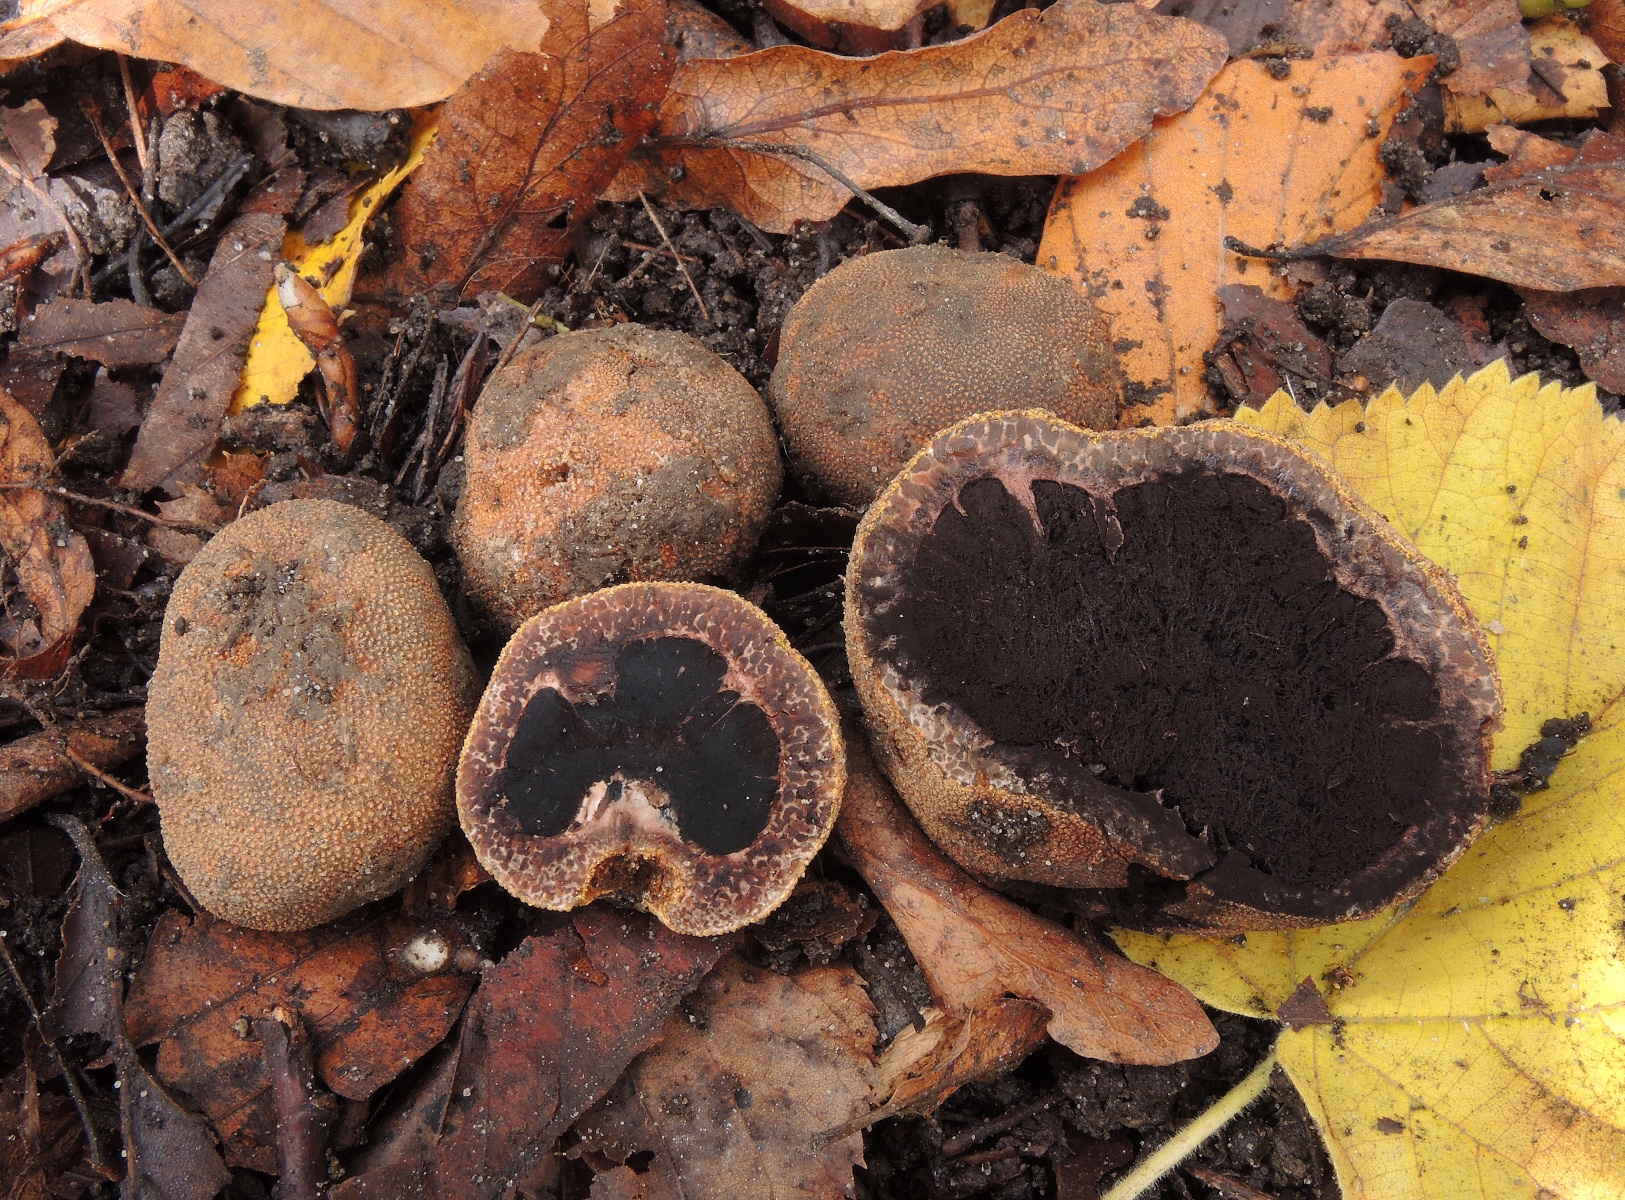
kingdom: Fungi
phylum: Ascomycota
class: Eurotiomycetes
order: Eurotiales
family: Elaphomycetaceae
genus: Elaphomyces
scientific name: Elaphomyces muricatus
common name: vortet hjortetrøffel
